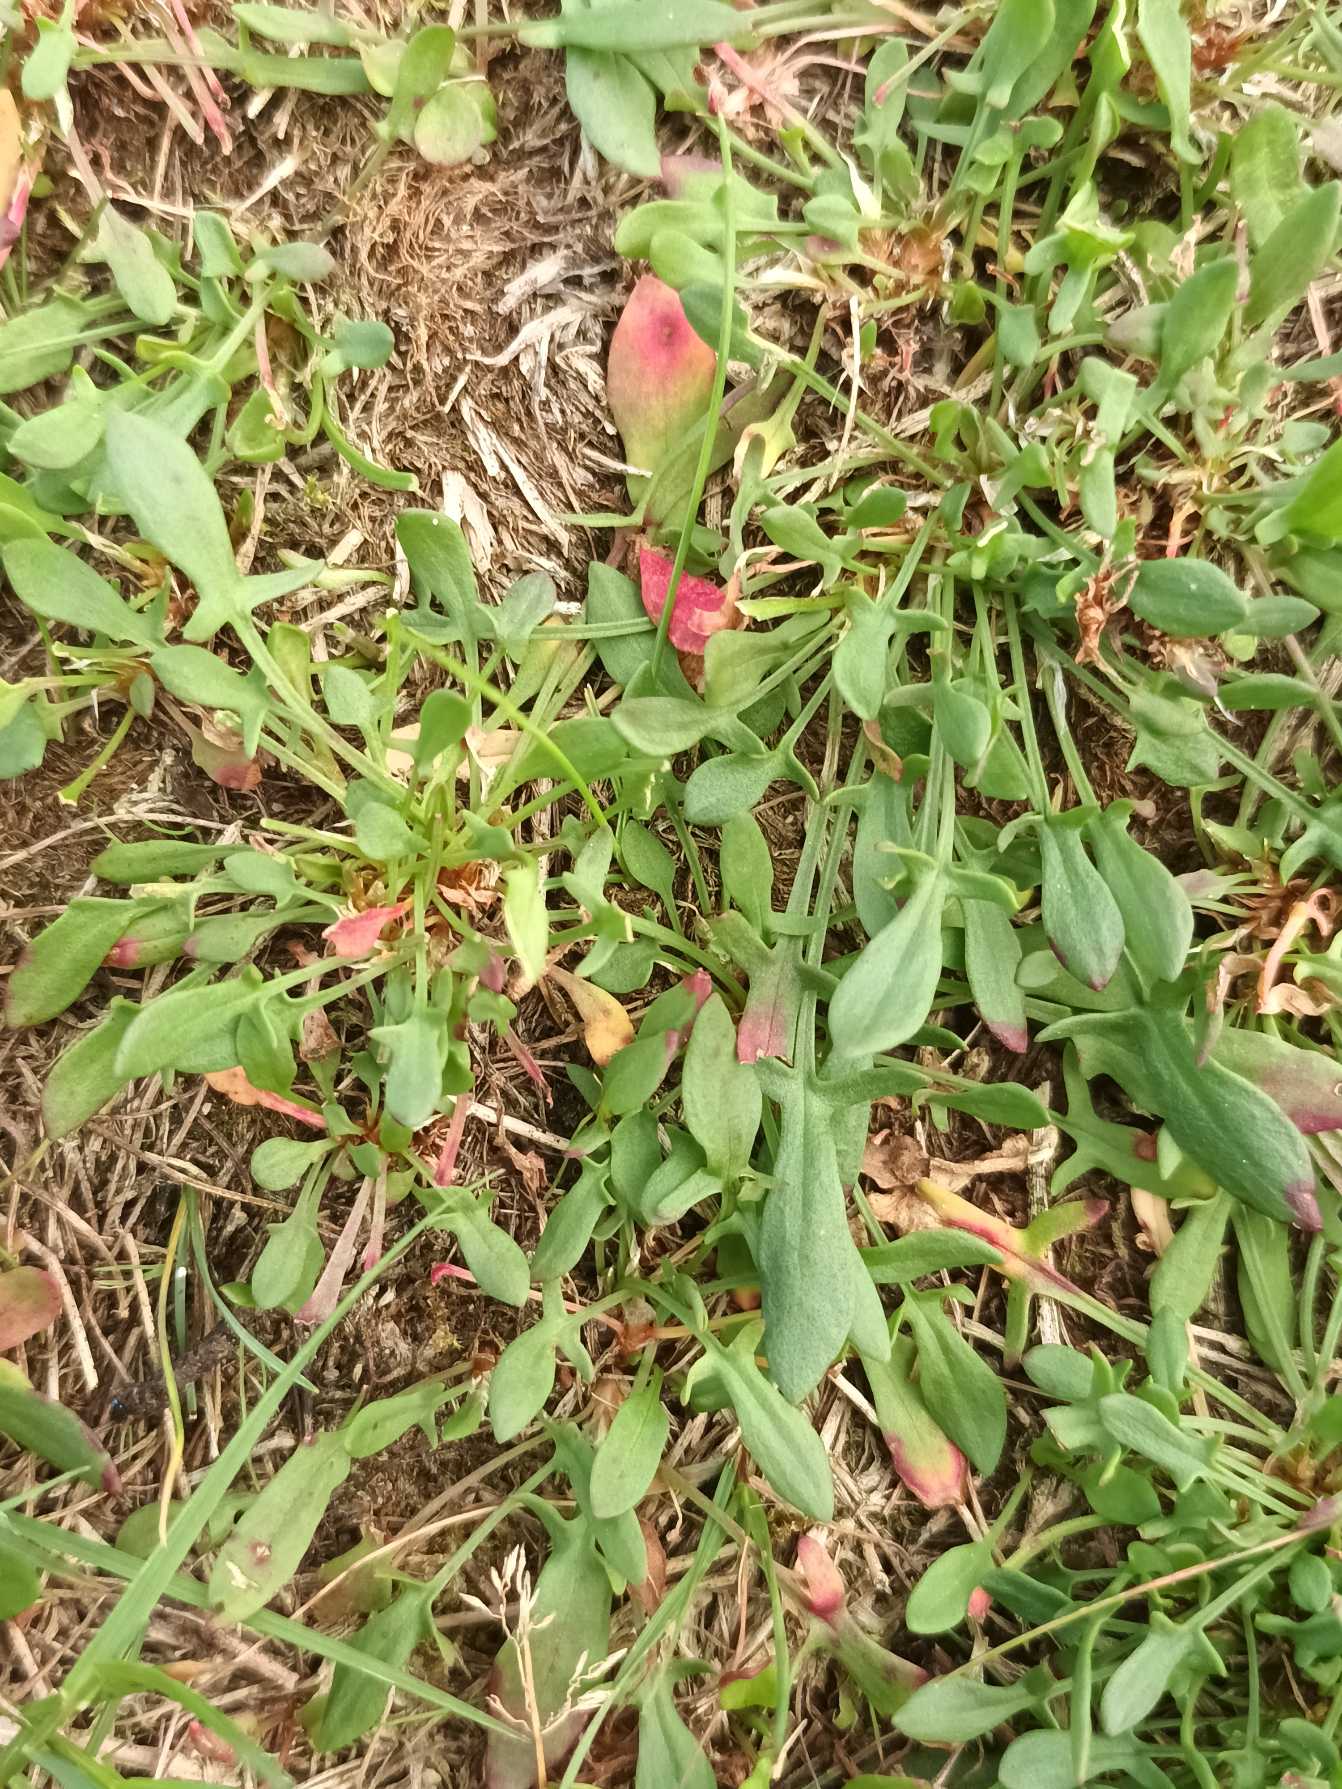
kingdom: Plantae
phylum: Tracheophyta
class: Magnoliopsida
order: Caryophyllales
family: Polygonaceae
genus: Rumex
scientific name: Rumex acetosella
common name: Rødknæ
